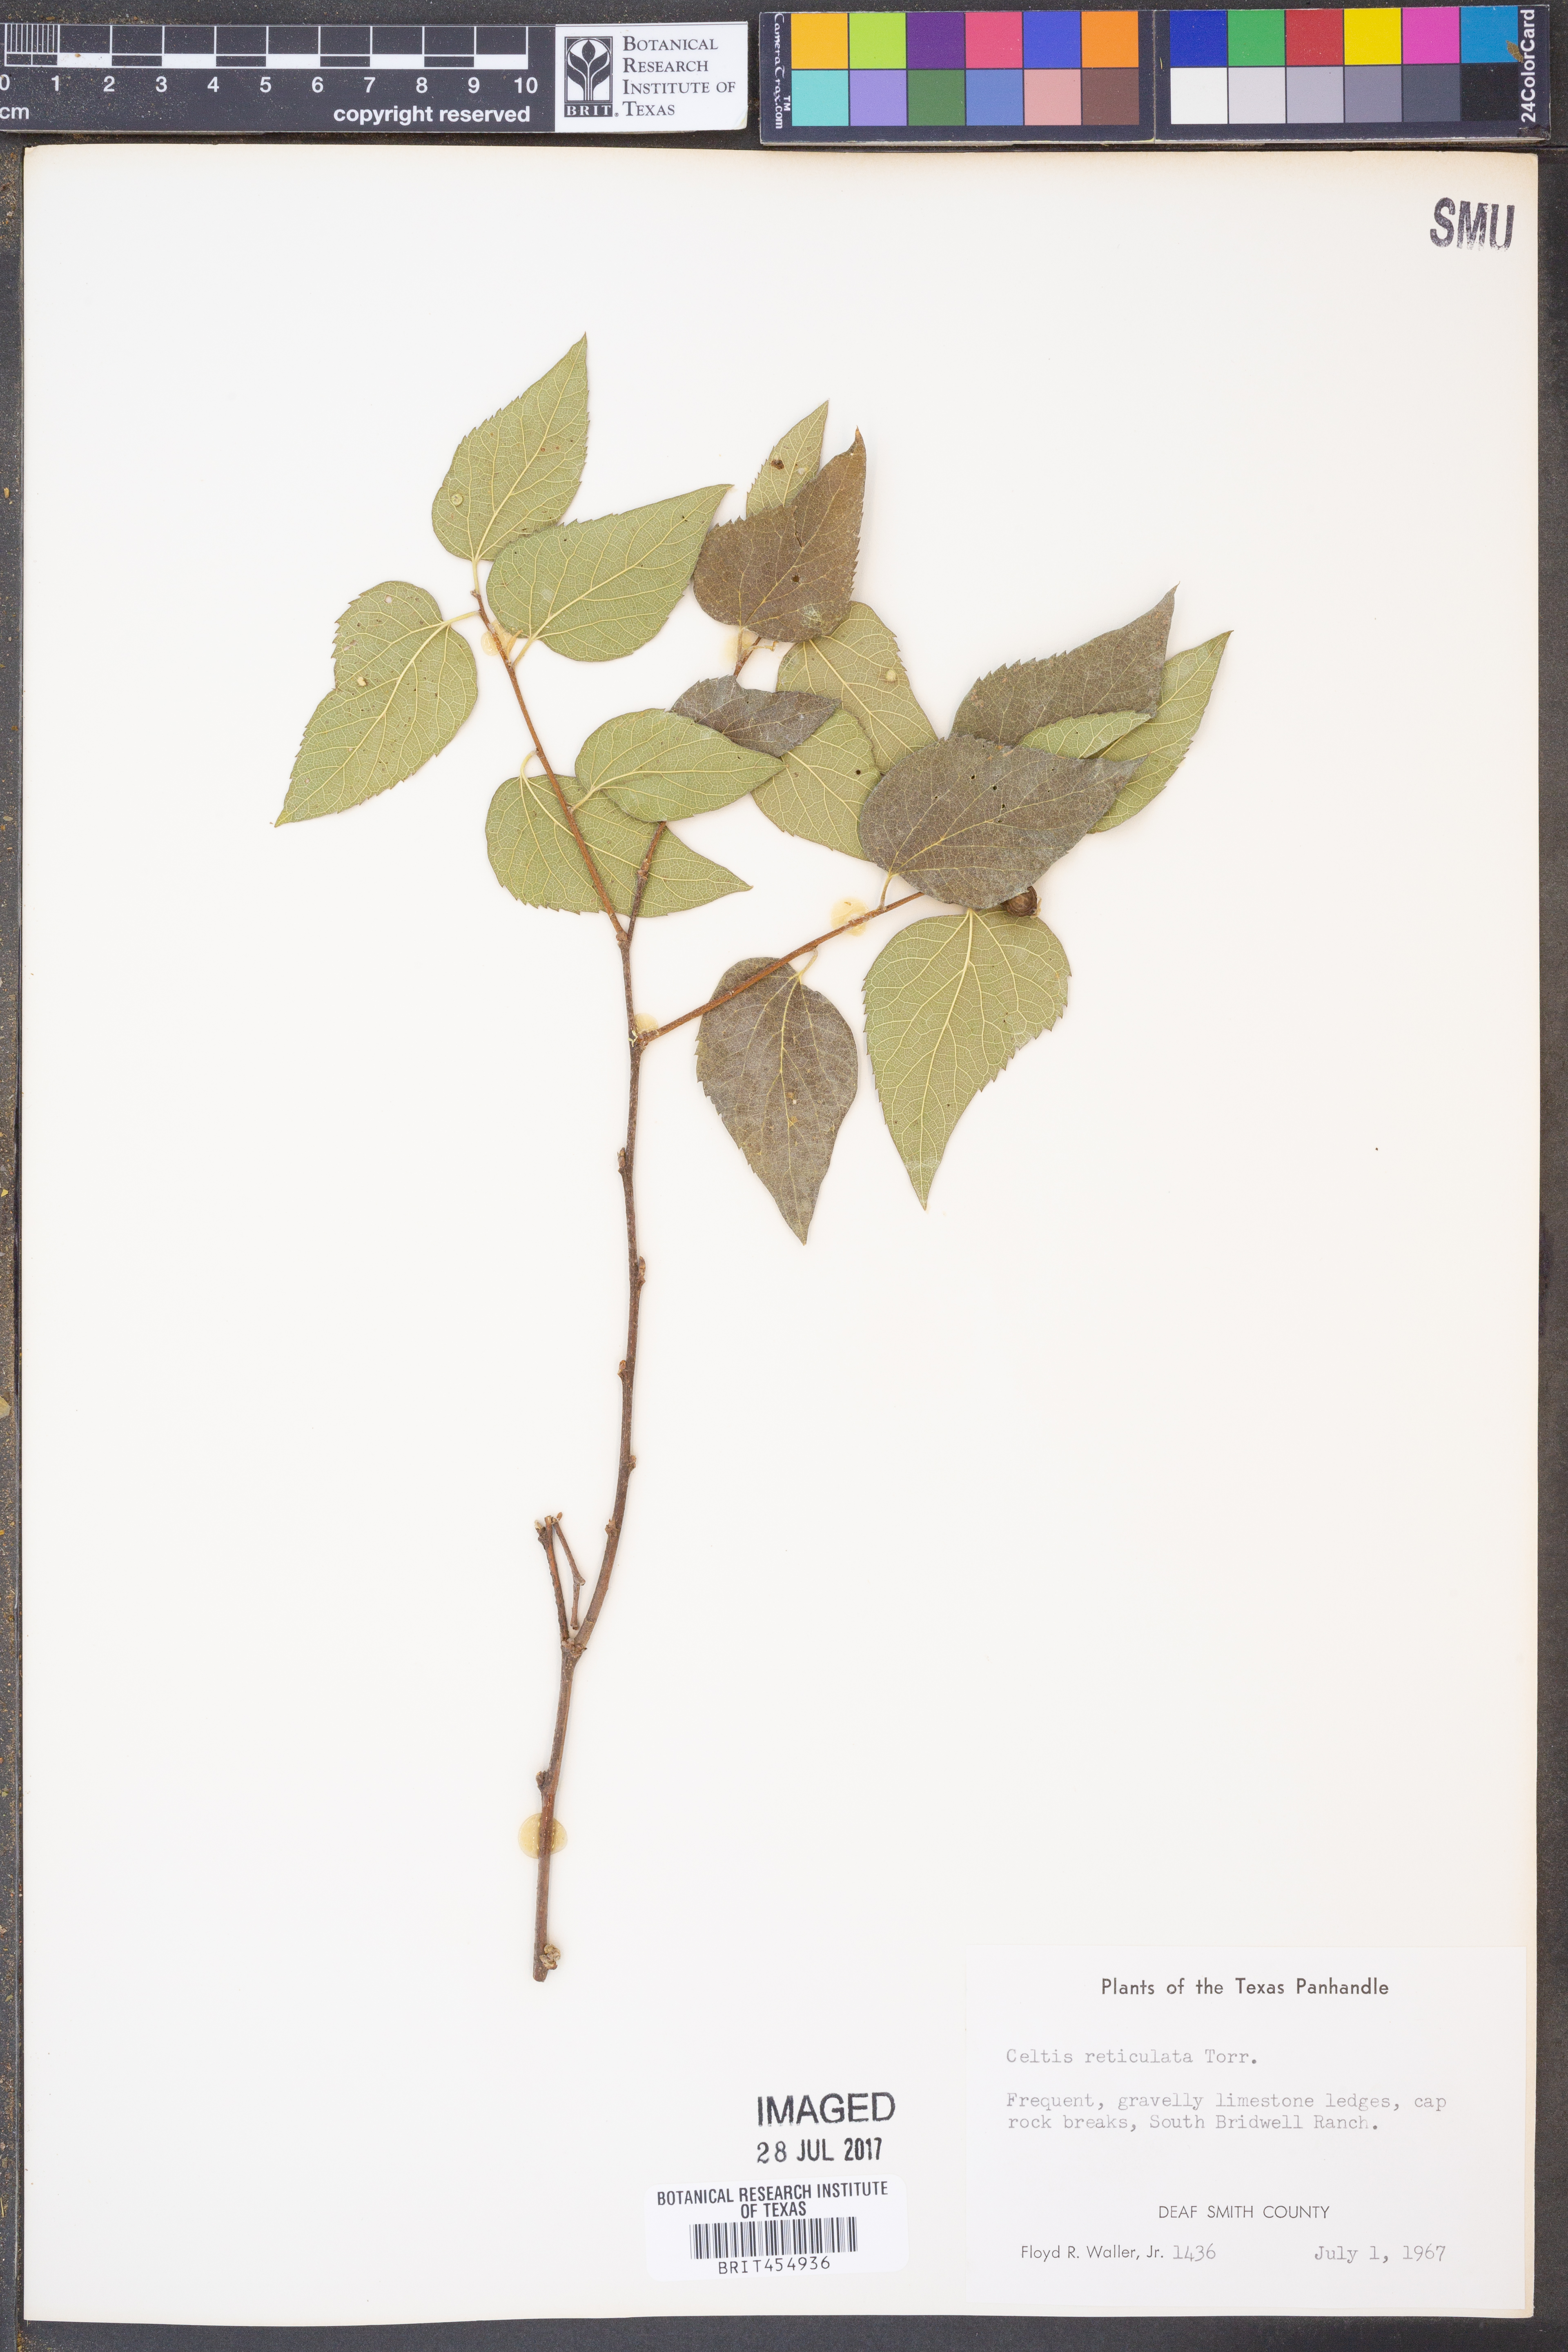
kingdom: Plantae
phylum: Tracheophyta
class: Magnoliopsida
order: Rosales
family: Cannabaceae
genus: Celtis
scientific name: Celtis reticulata
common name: Netleaf hackberry
